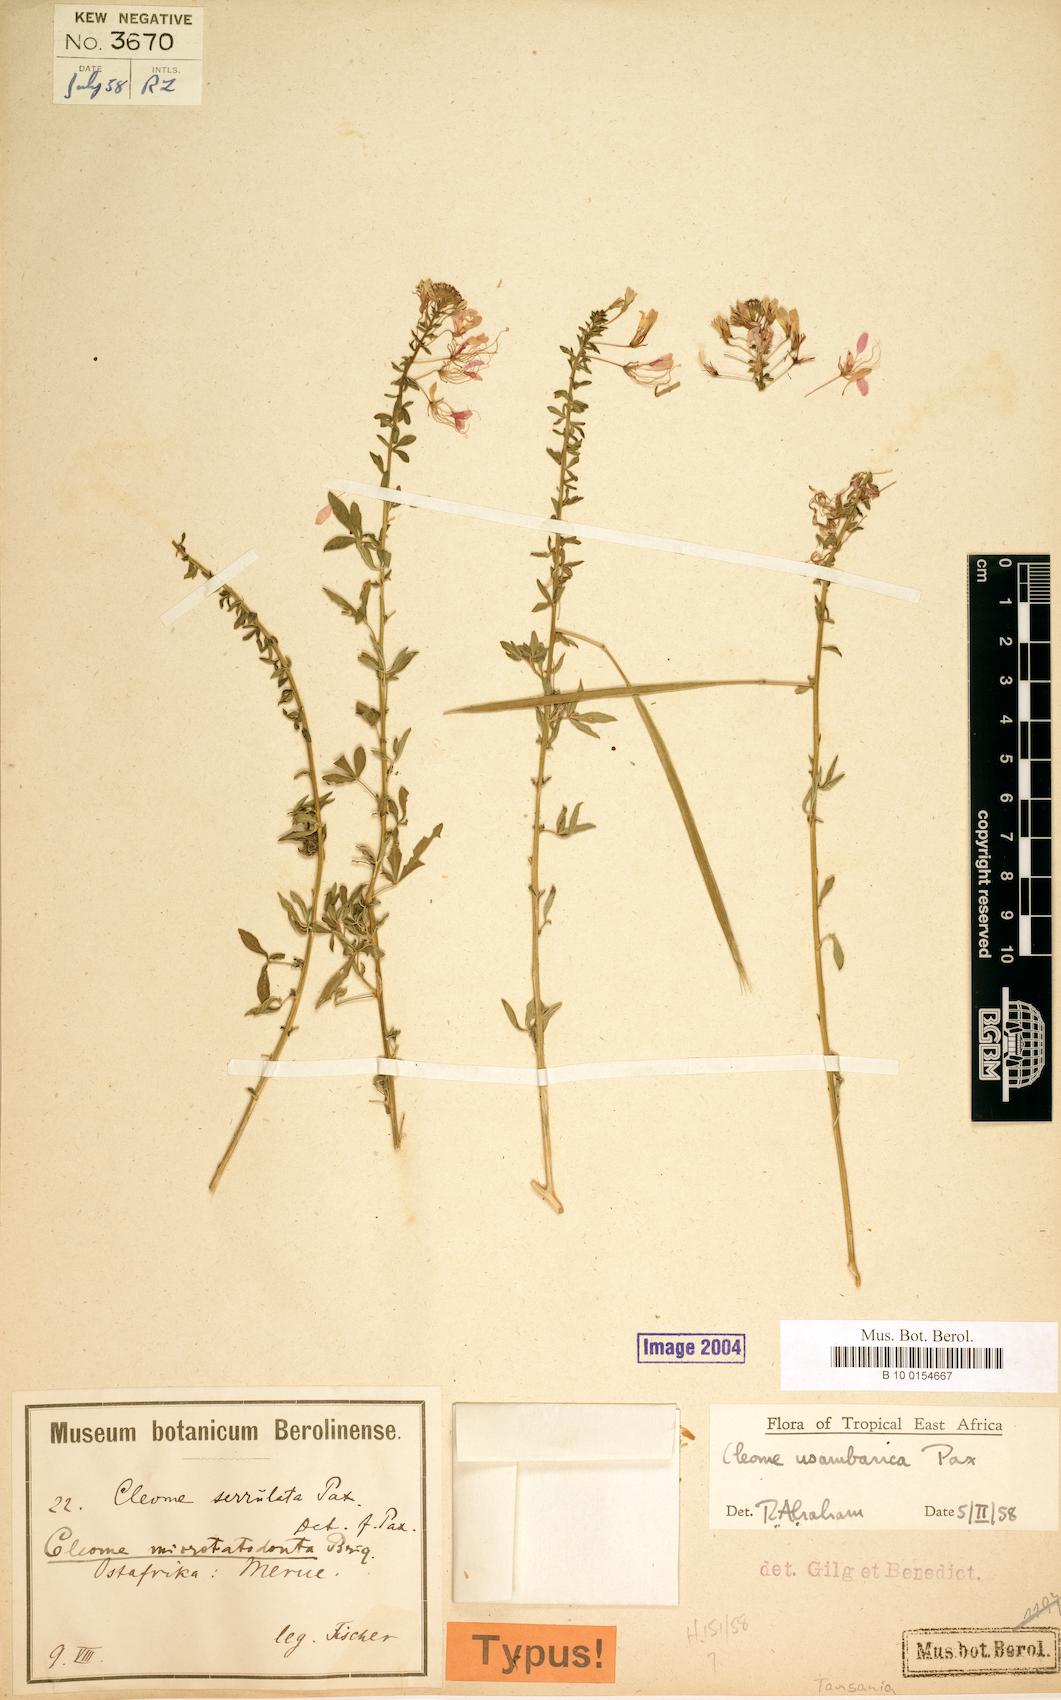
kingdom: Plantae
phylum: Tracheophyta
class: Magnoliopsida
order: Brassicales
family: Cleomaceae
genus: Sieruela
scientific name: Sieruela usambarica
